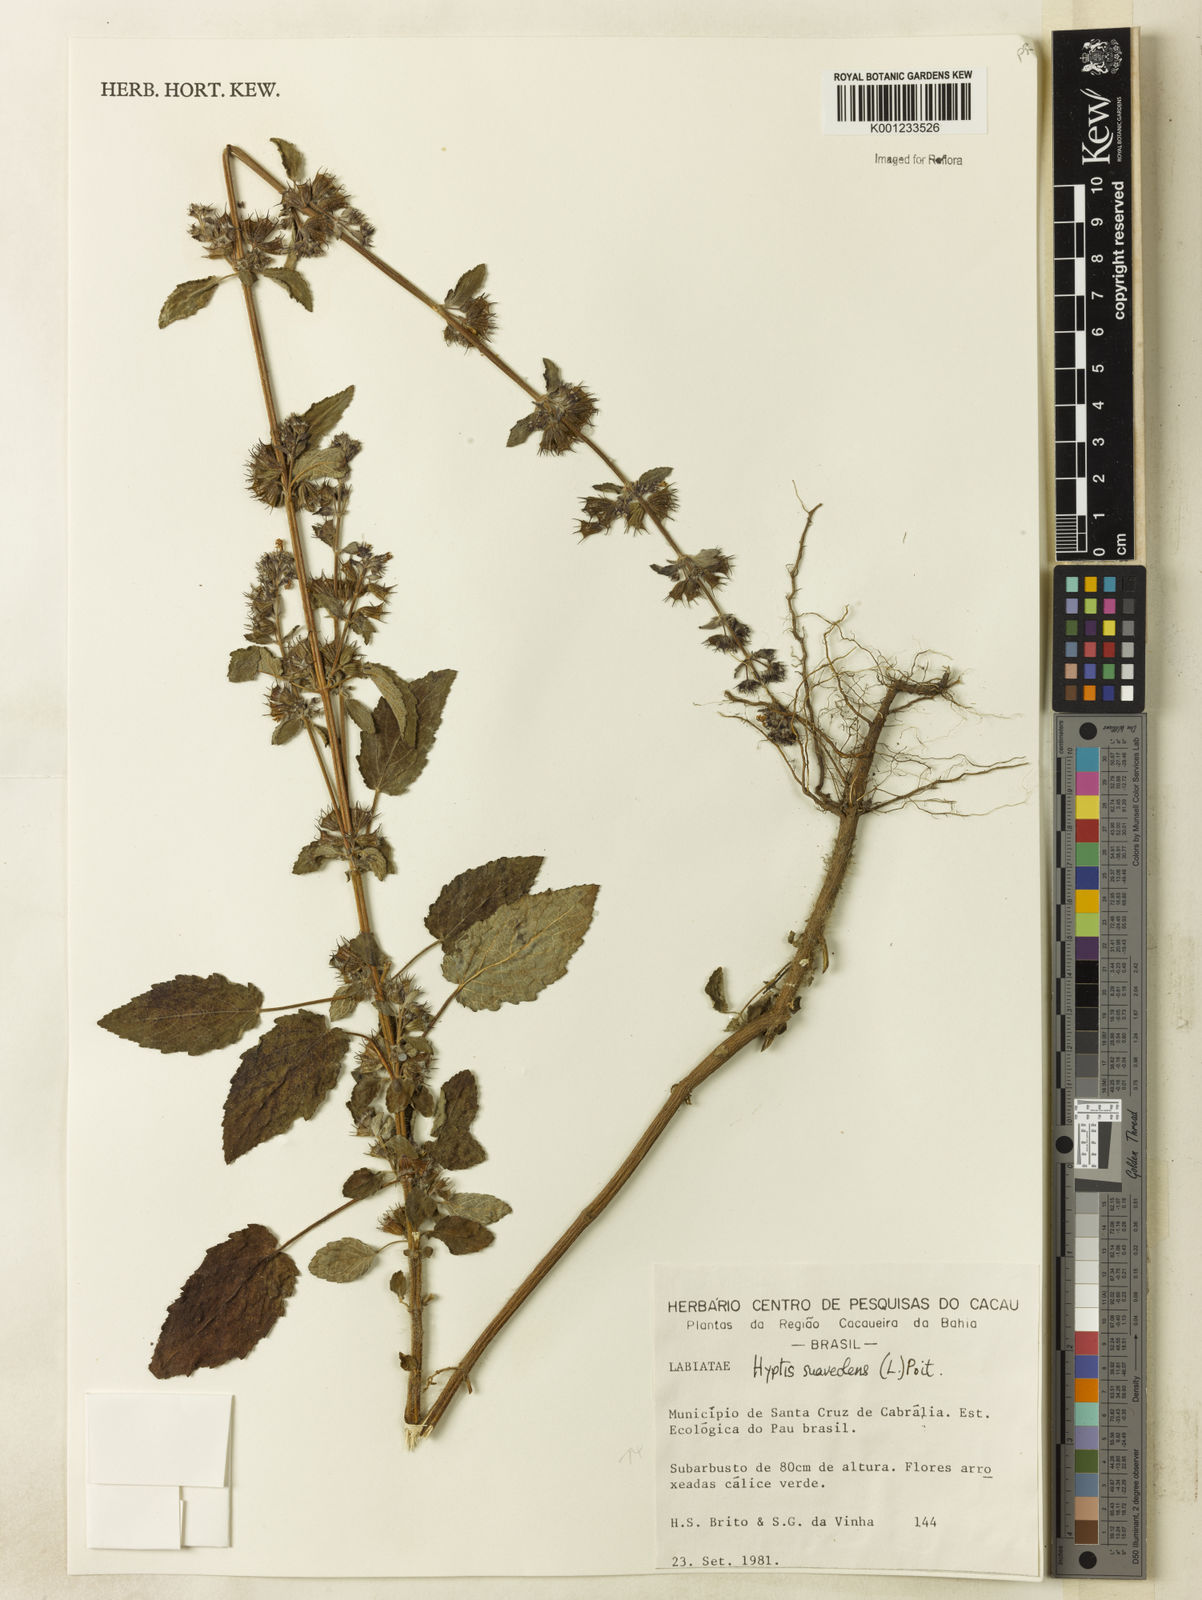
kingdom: Plantae
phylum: Tracheophyta
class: Magnoliopsida
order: Lamiales
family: Lamiaceae
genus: Mesosphaerum
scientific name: Mesosphaerum suaveolens
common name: Pignut
